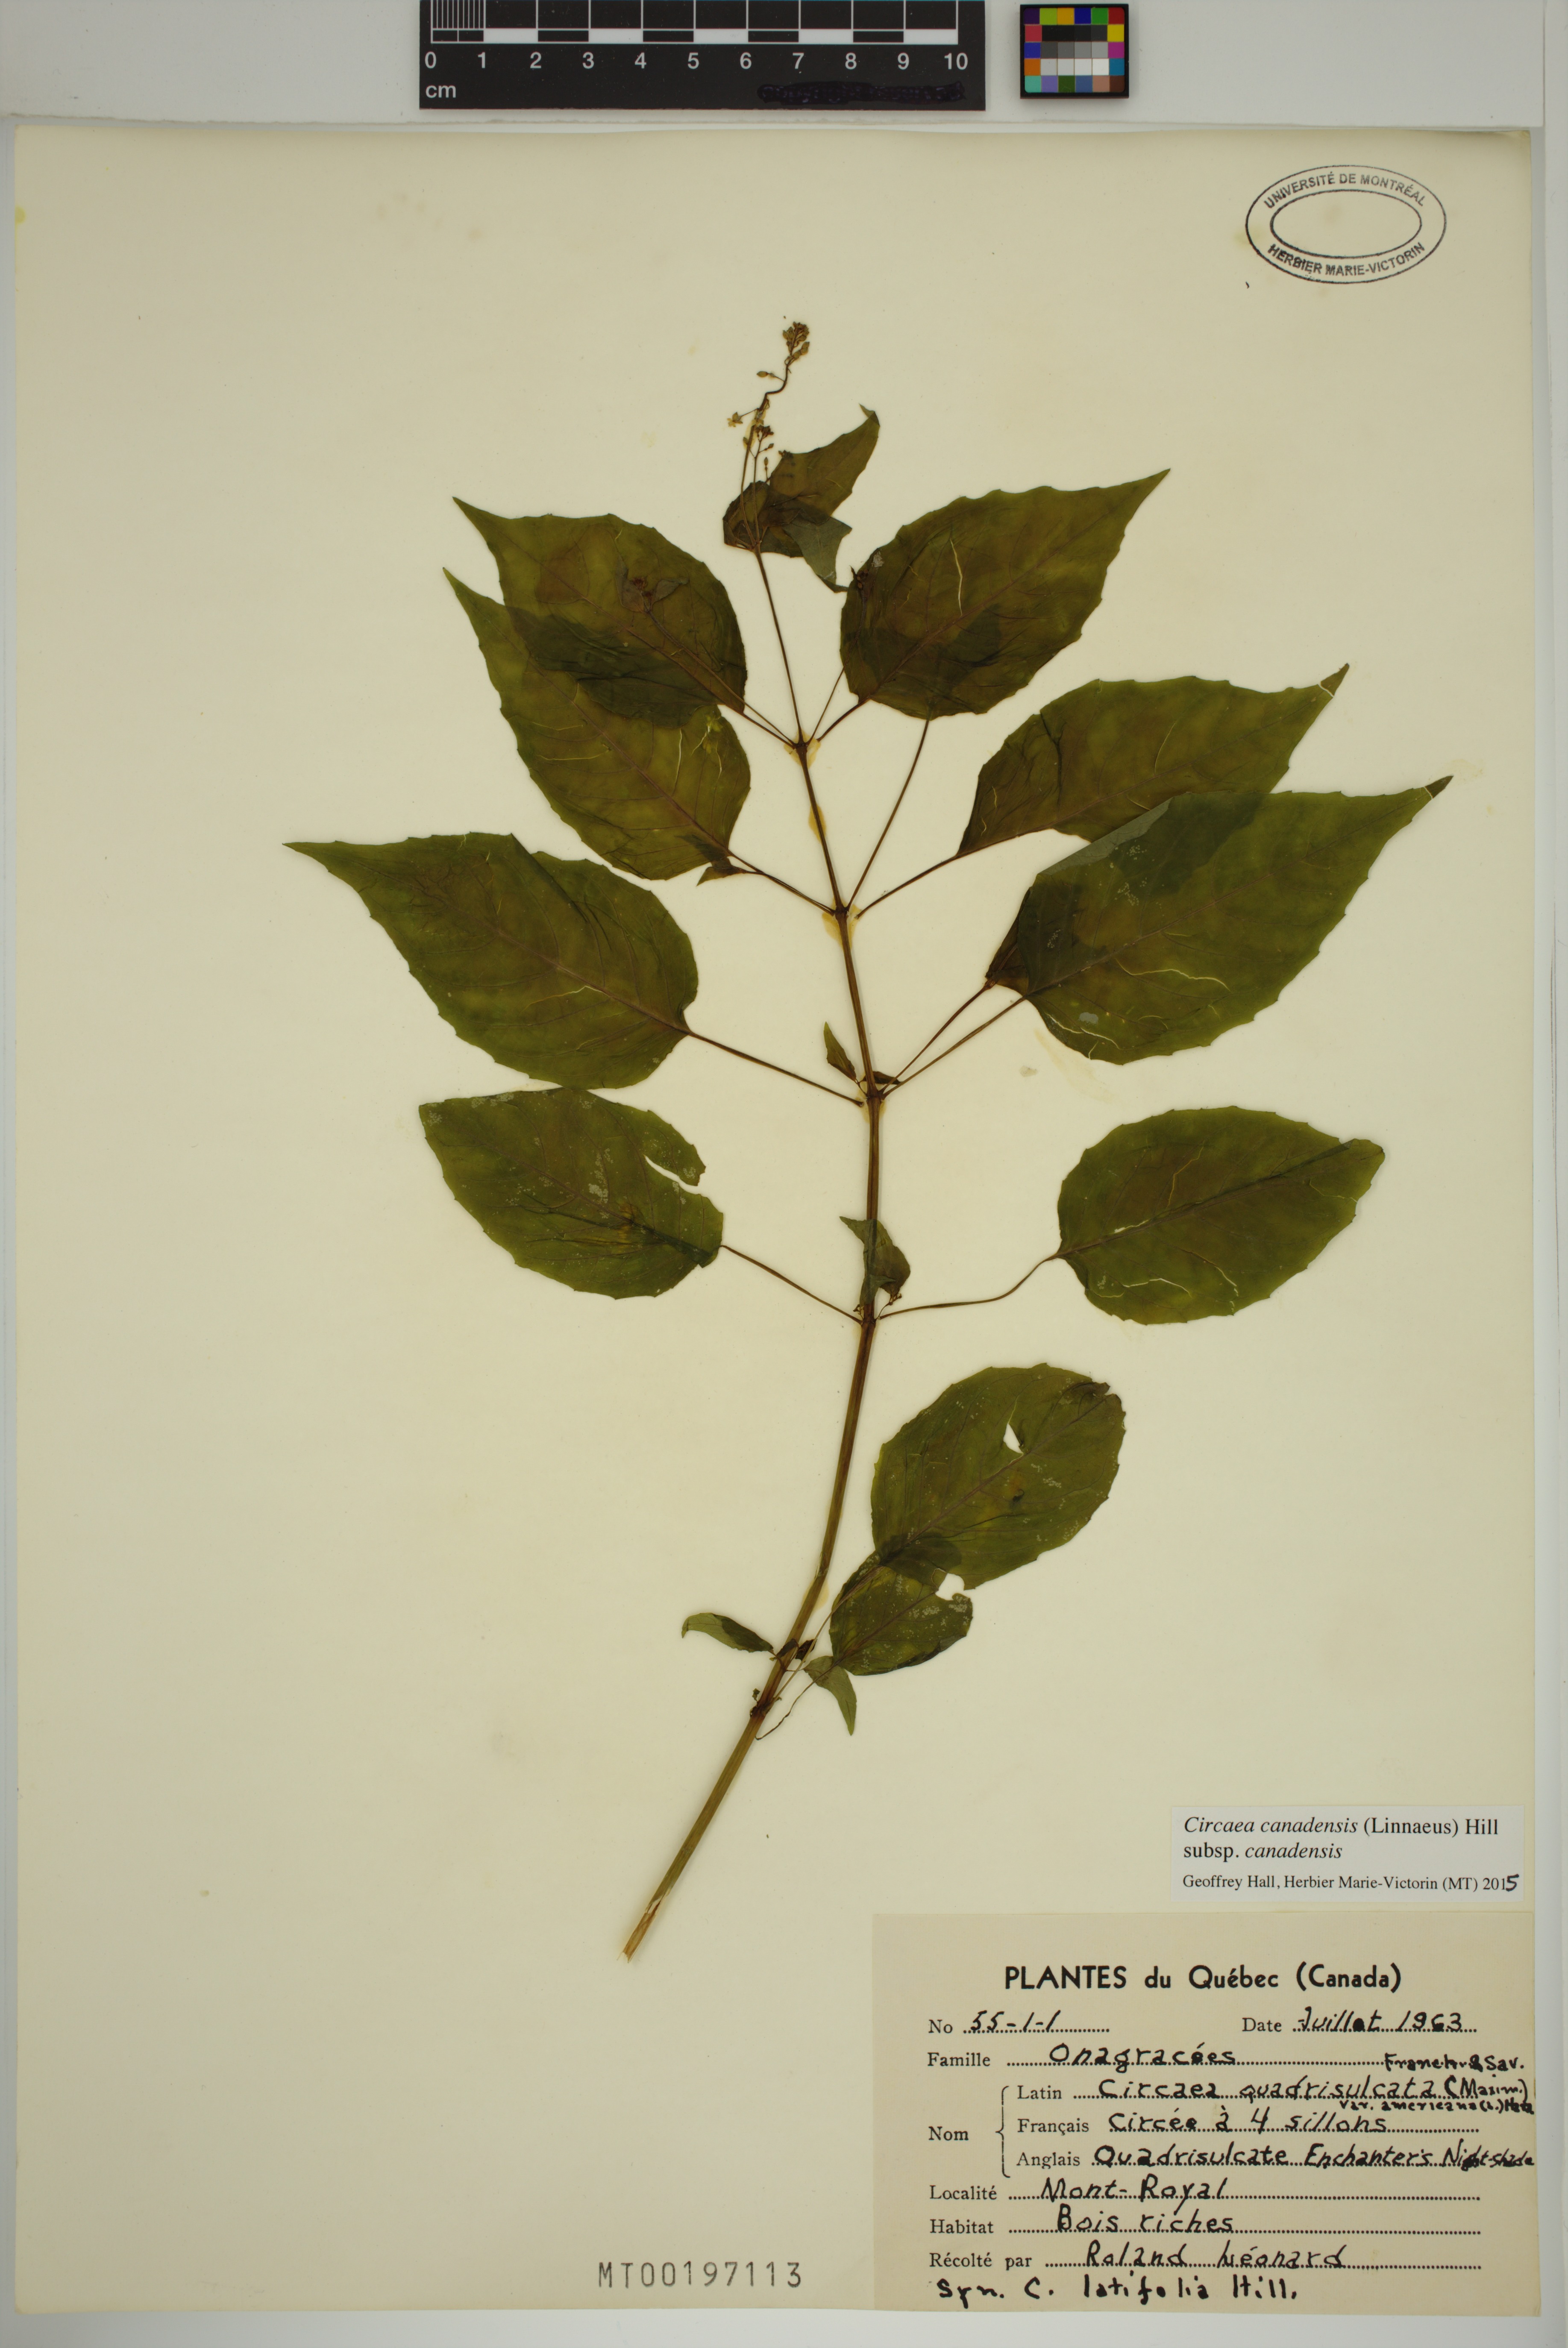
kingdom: Plantae
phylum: Tracheophyta
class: Magnoliopsida
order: Myrtales
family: Onagraceae
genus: Circaea
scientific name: Circaea canadensis
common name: Broad-leaved enchanter's nightshade
